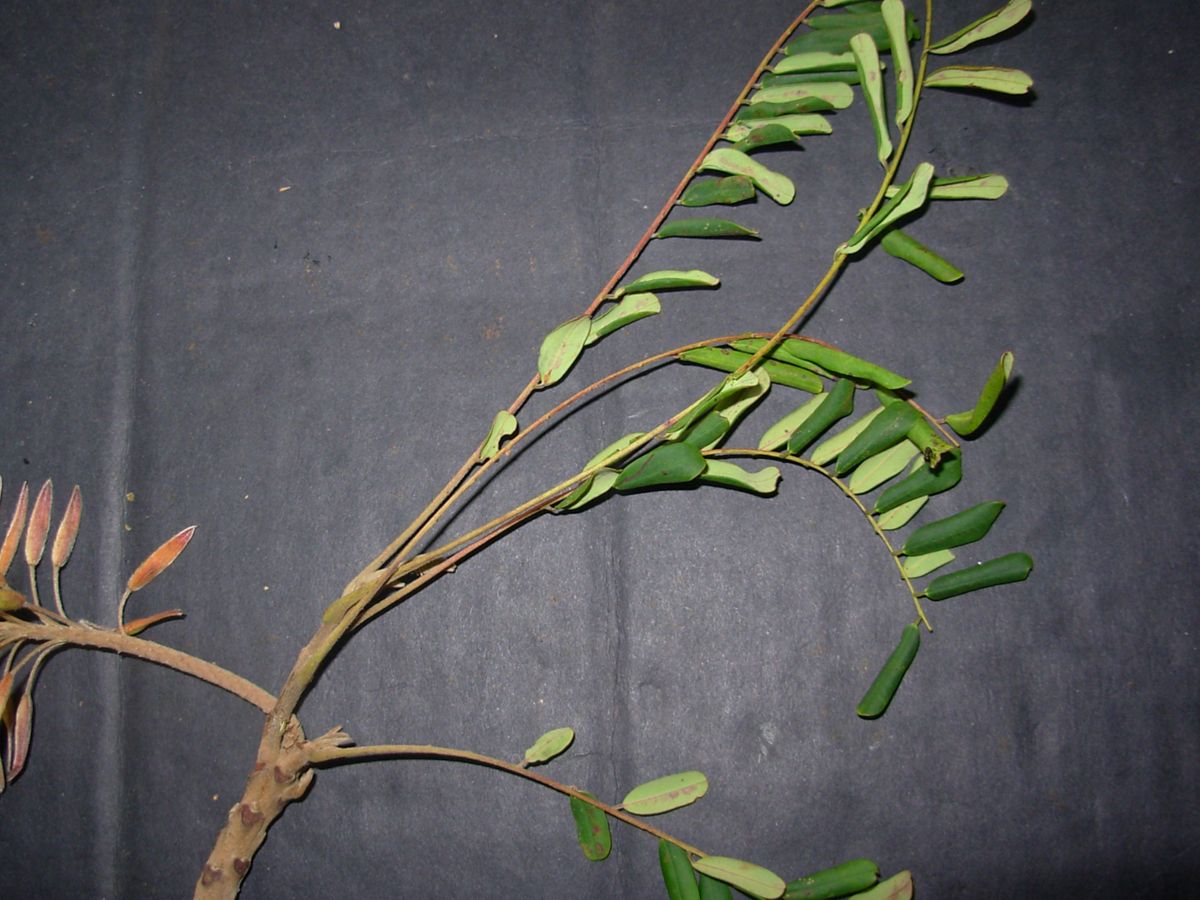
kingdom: Plantae
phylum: Tracheophyta
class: Magnoliopsida
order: Picramniales
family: Picramniaceae
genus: Alvaradoa
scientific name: Alvaradoa amorphoides
